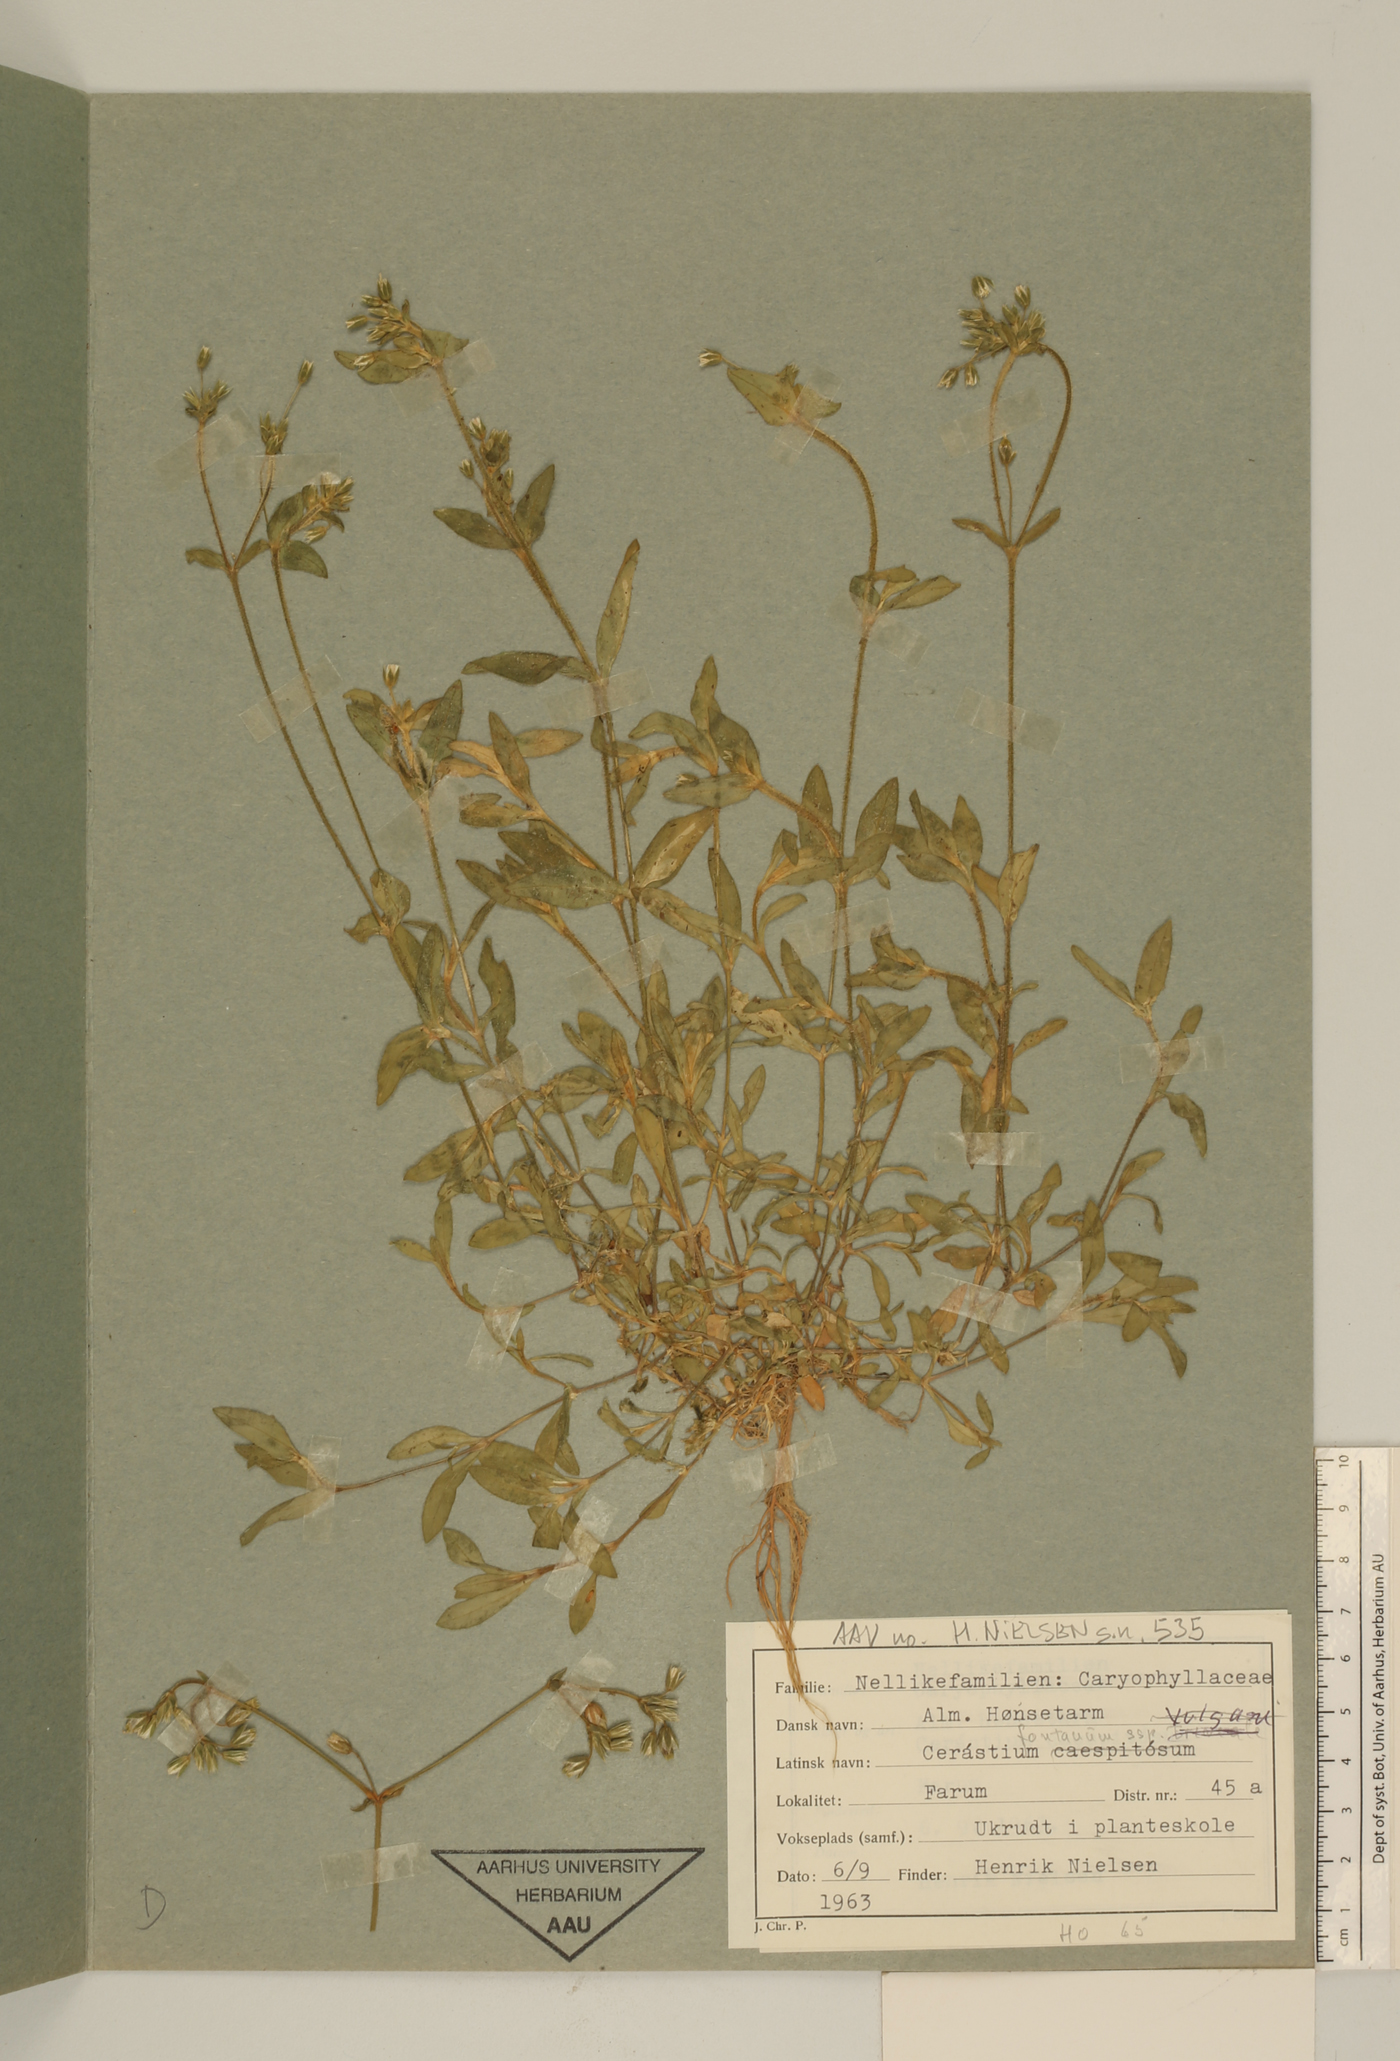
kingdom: Plantae
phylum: Tracheophyta
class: Magnoliopsida
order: Caryophyllales
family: Caryophyllaceae
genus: Cerastium
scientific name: Cerastium fontanum
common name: Common mouse-ear
